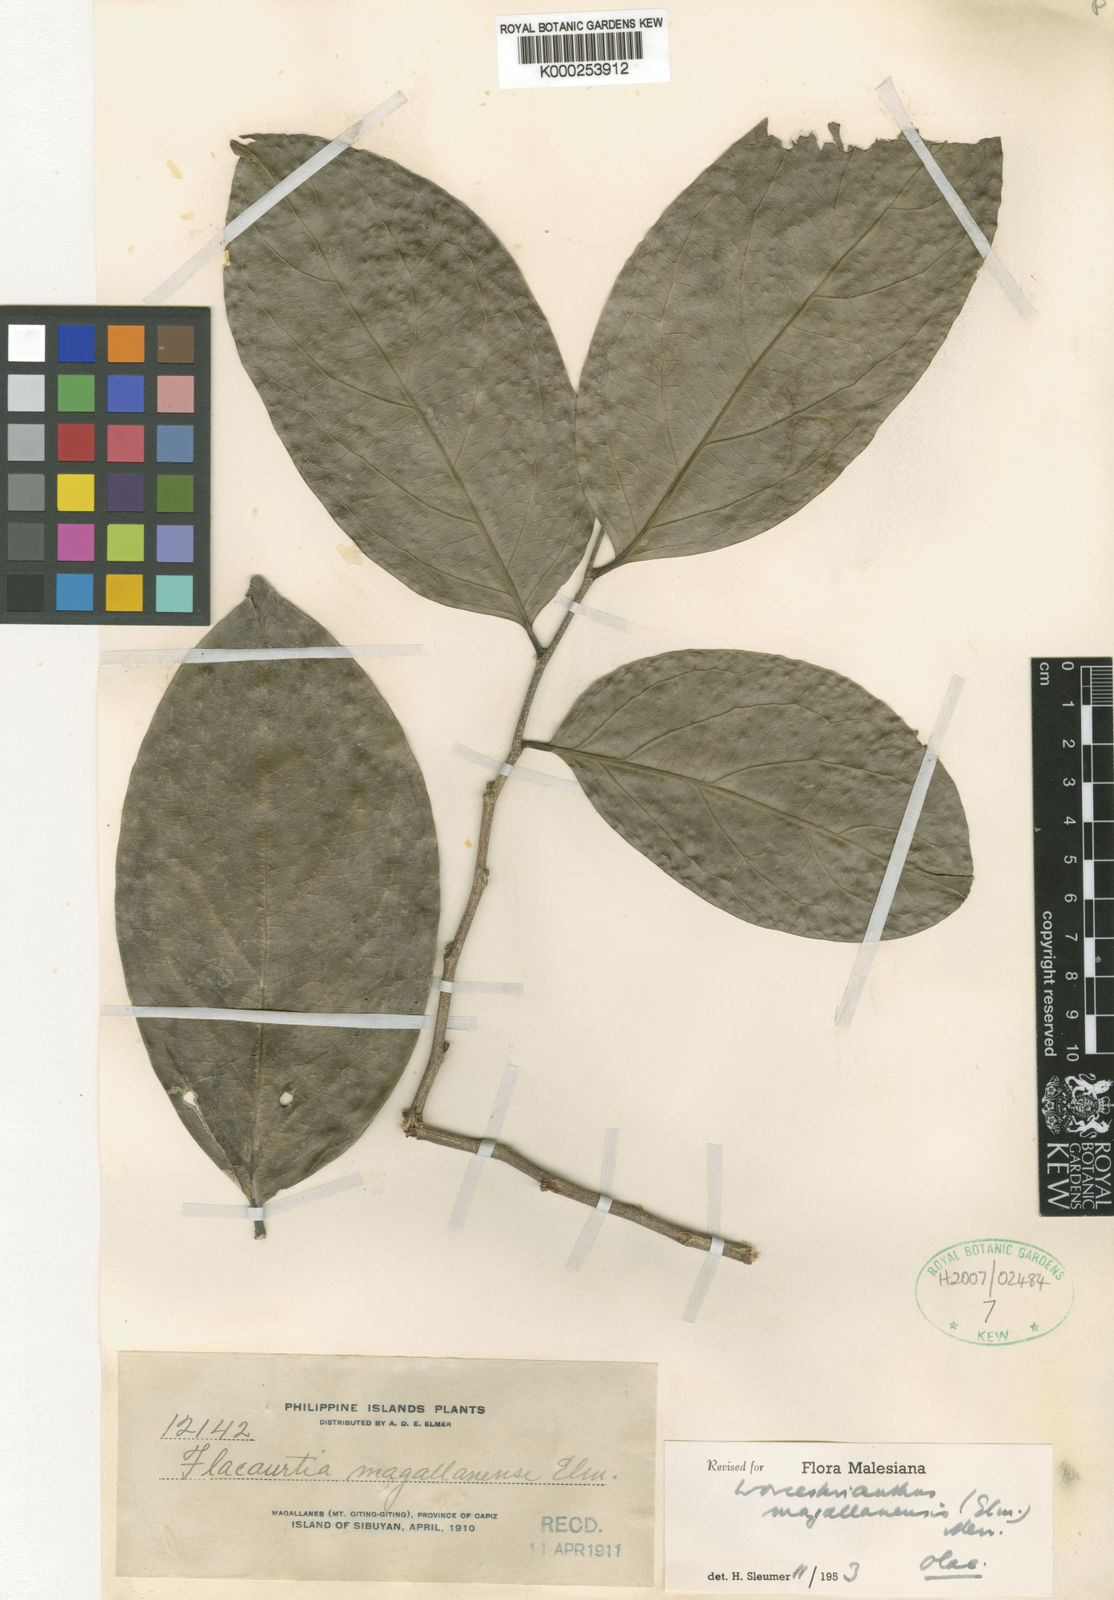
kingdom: Plantae
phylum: Tracheophyta
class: Magnoliopsida
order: Malpighiales
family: Pandaceae
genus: Microdesmis
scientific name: Microdesmis magallanensis
